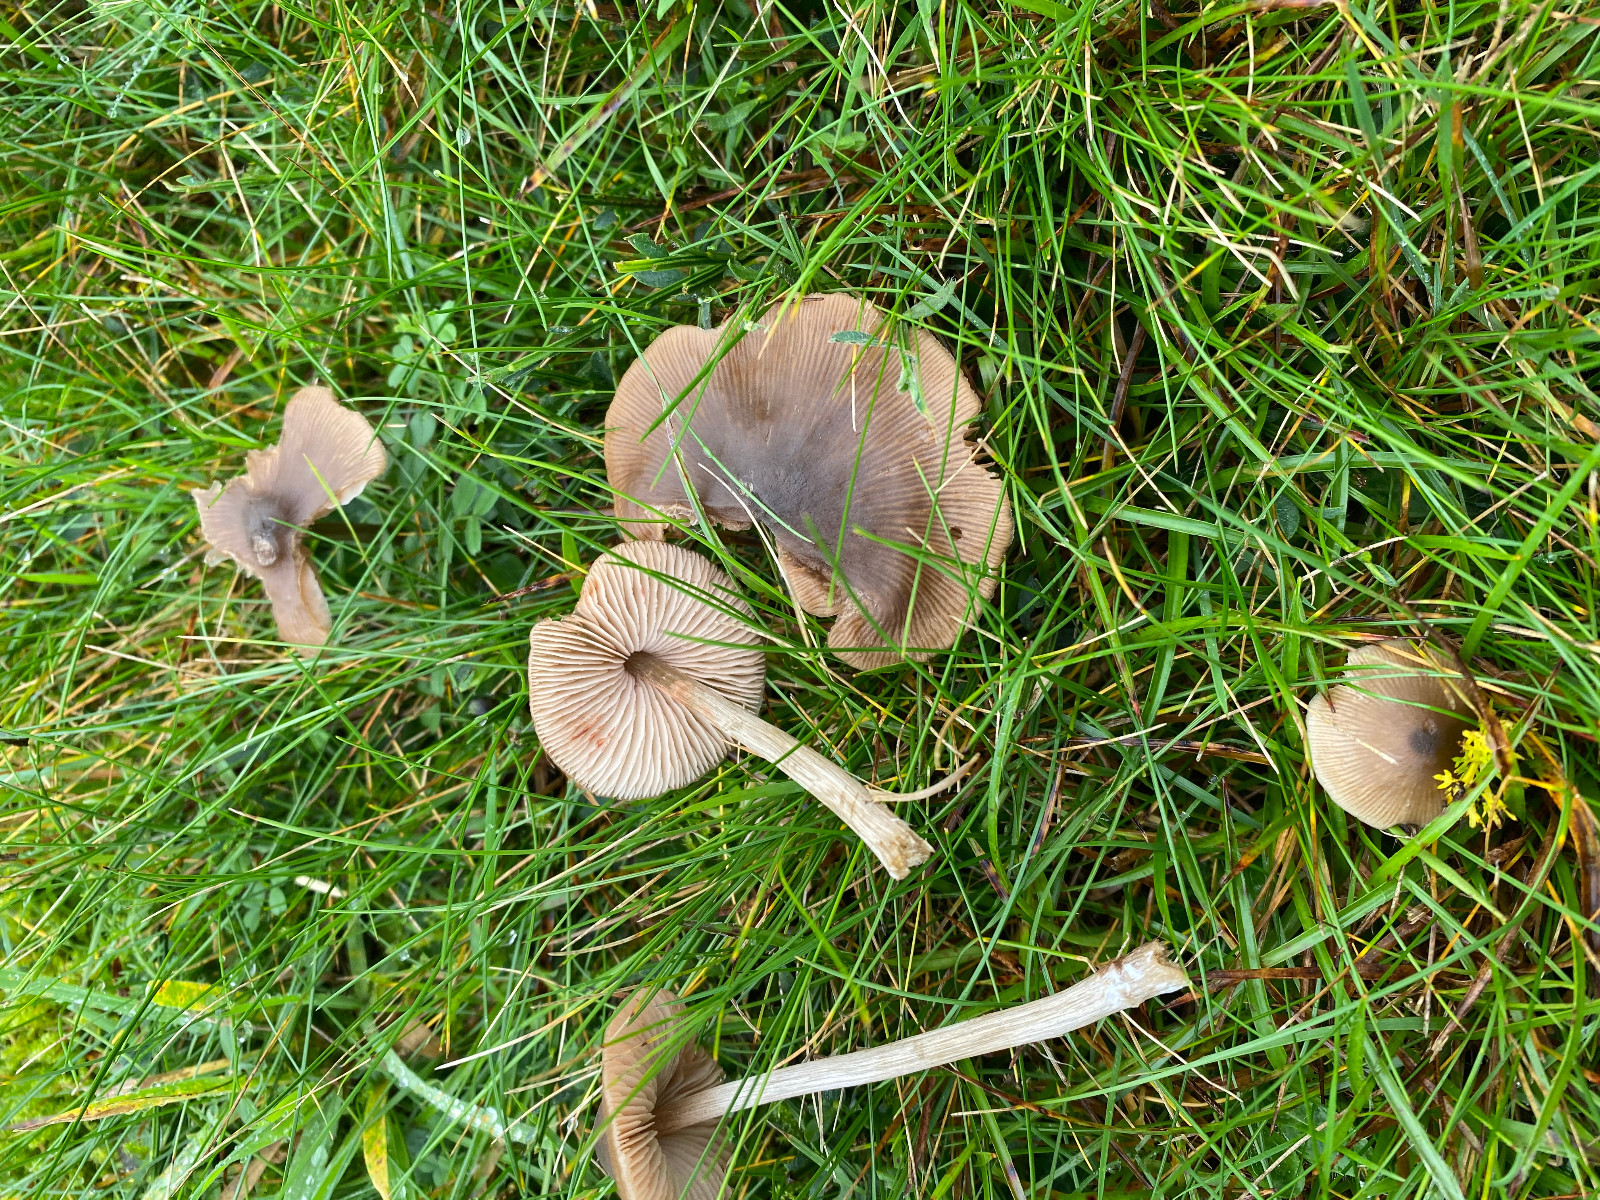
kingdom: Fungi
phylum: Basidiomycota
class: Agaricomycetes
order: Agaricales
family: Entolomataceae
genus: Entoloma
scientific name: Entoloma
